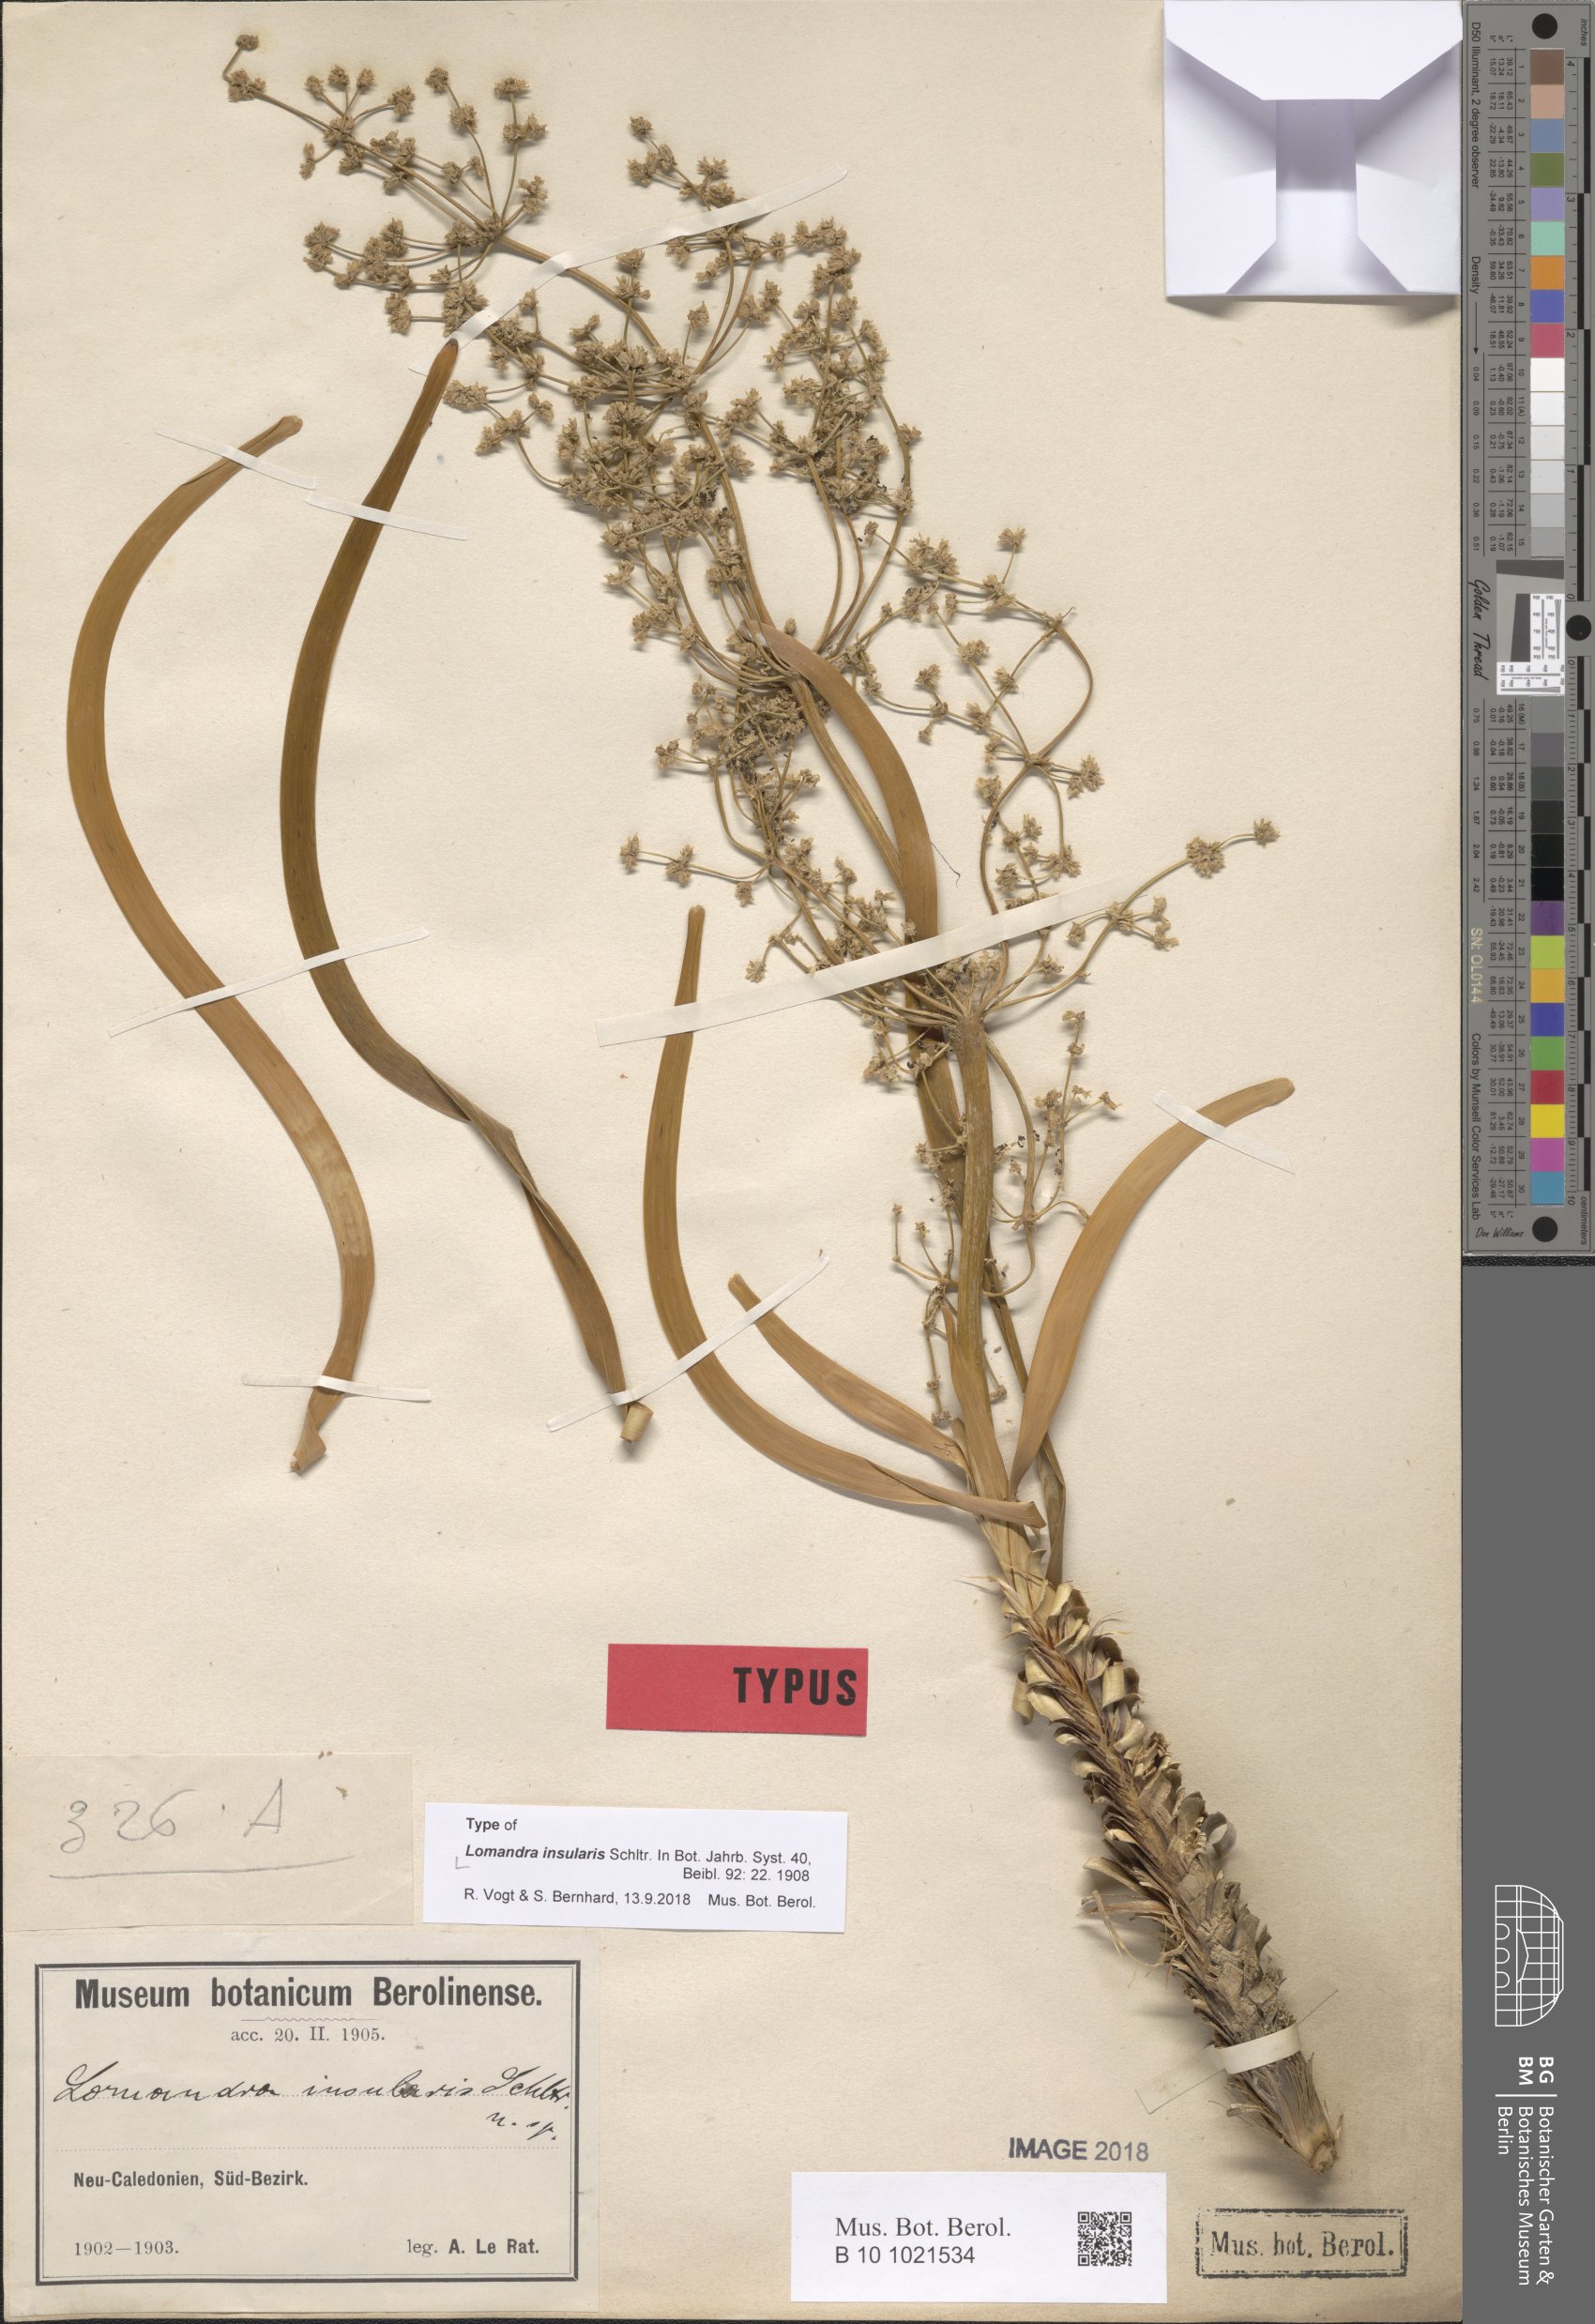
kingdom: Plantae
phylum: Tracheophyta
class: Liliopsida
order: Asparagales
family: Asparagaceae
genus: Lomandra
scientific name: Lomandra insularis
